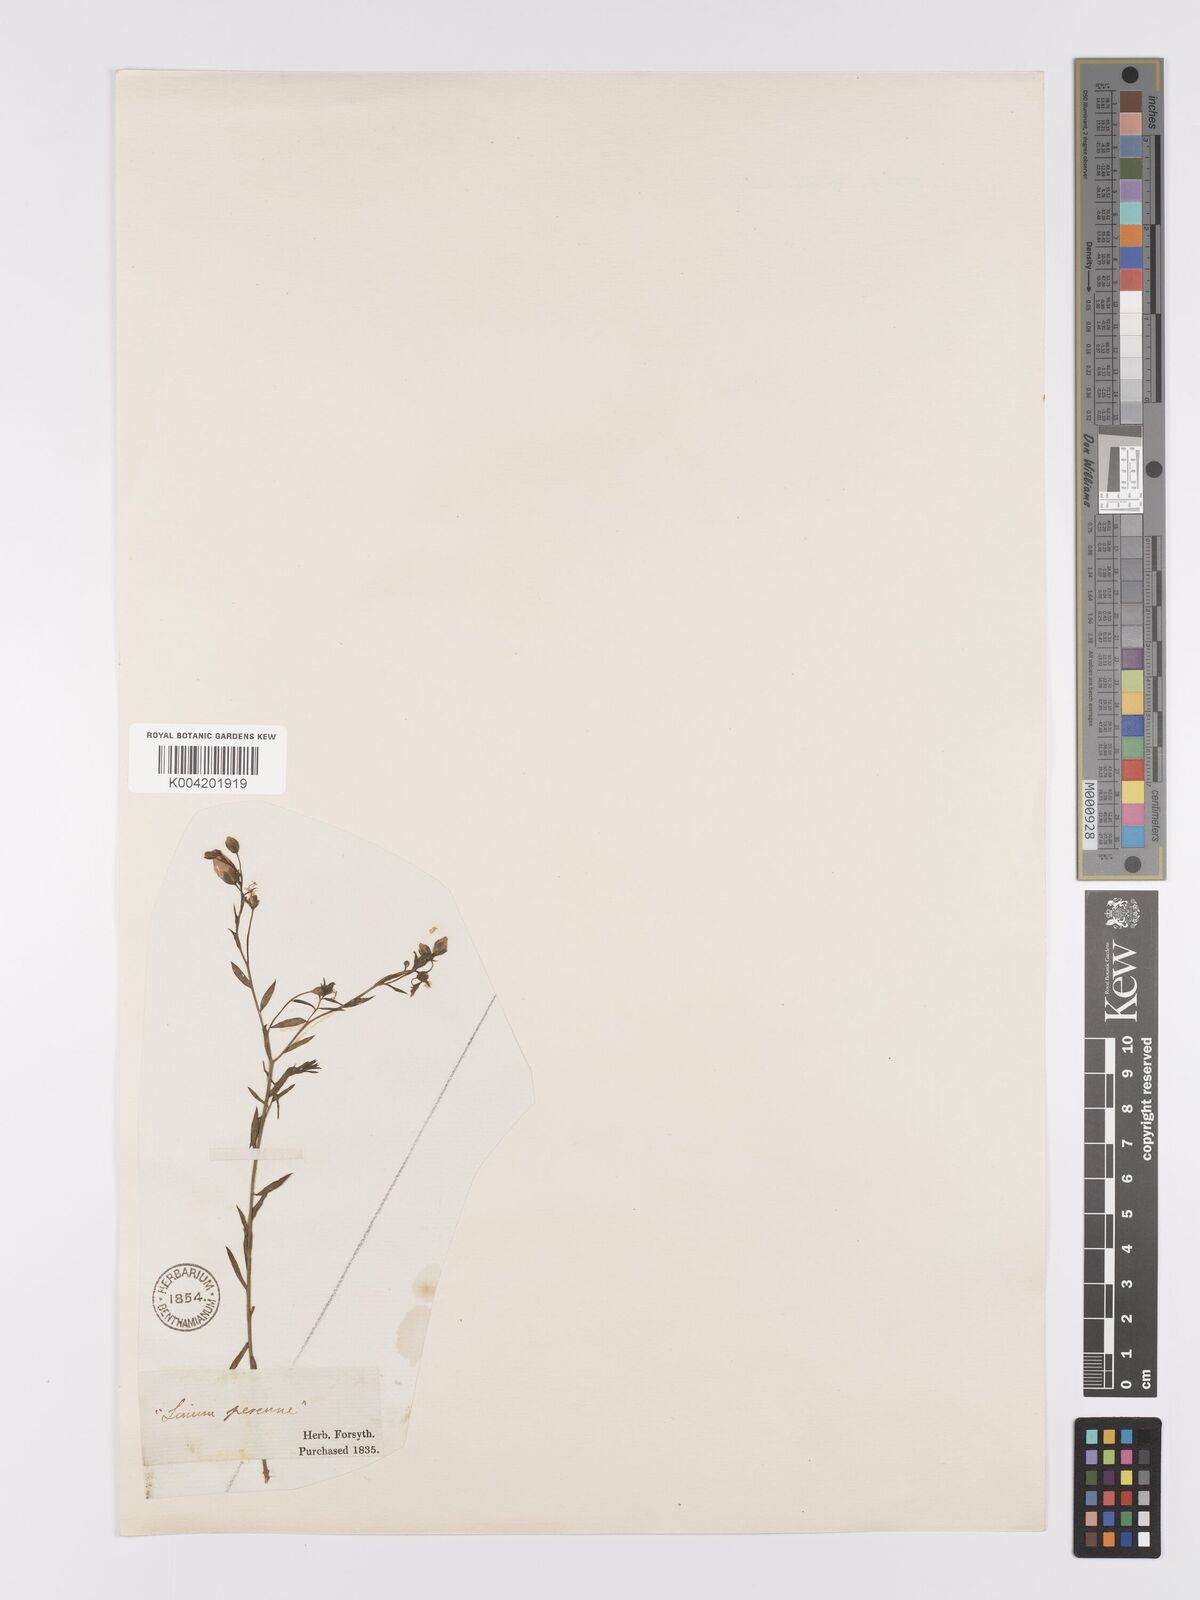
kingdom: Plantae
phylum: Tracheophyta
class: Magnoliopsida
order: Malpighiales
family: Linaceae
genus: Linum
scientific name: Linum
